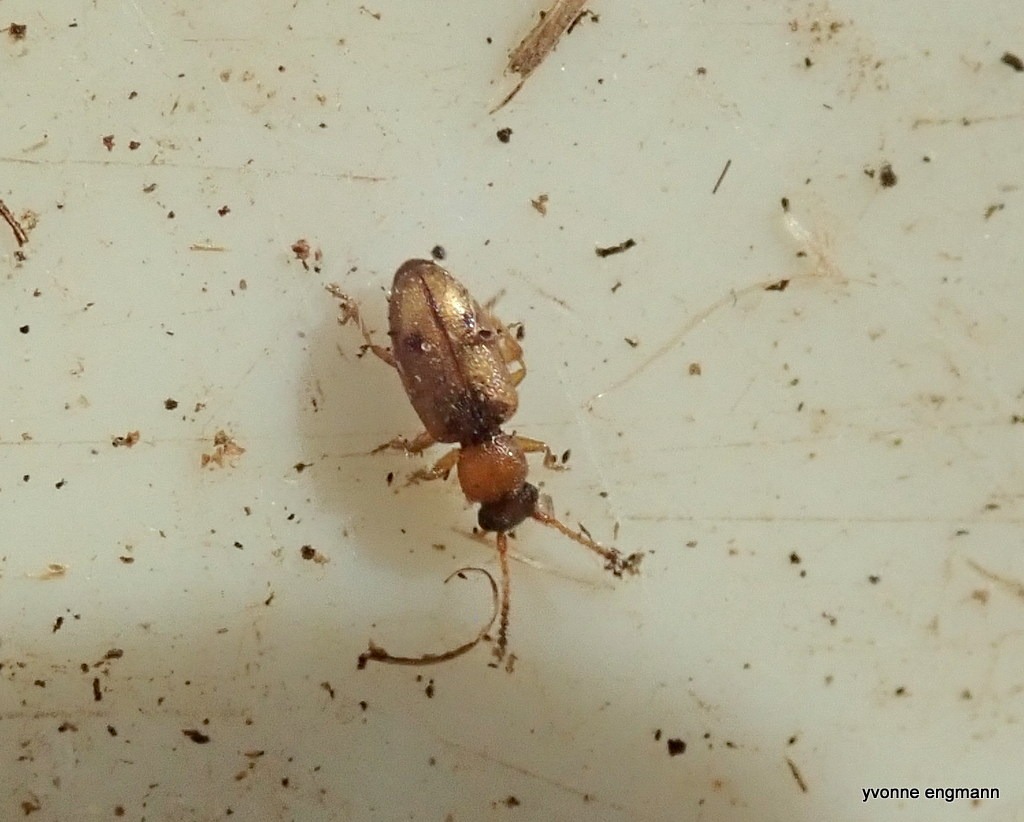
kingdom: Animalia
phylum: Arthropoda
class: Insecta
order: Coleoptera
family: Silvanidae
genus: Psammoecus
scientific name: Psammoecus bipunctatus
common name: Tagrørsfladbille
